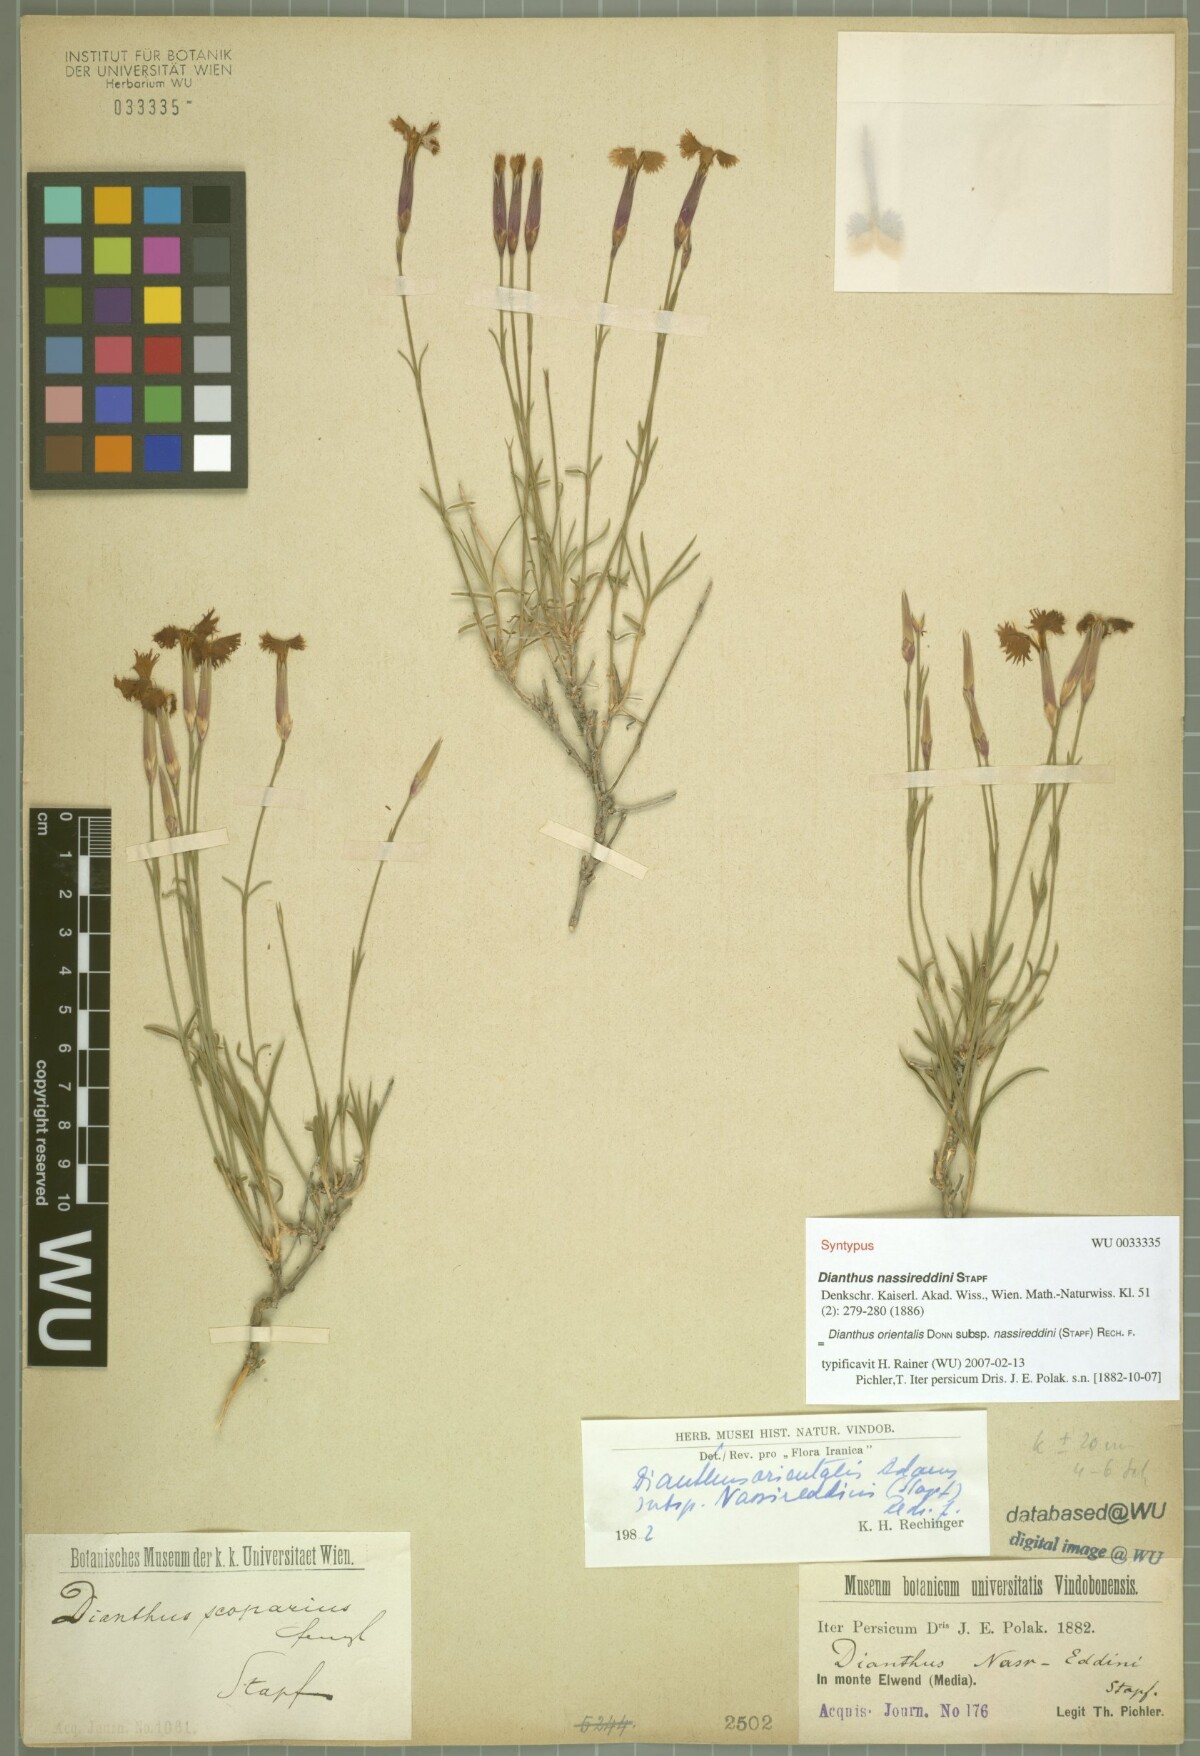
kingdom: Plantae
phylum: Tracheophyta
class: Magnoliopsida
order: Caryophyllales
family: Caryophyllaceae
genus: Dianthus
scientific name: Dianthus orientalis
